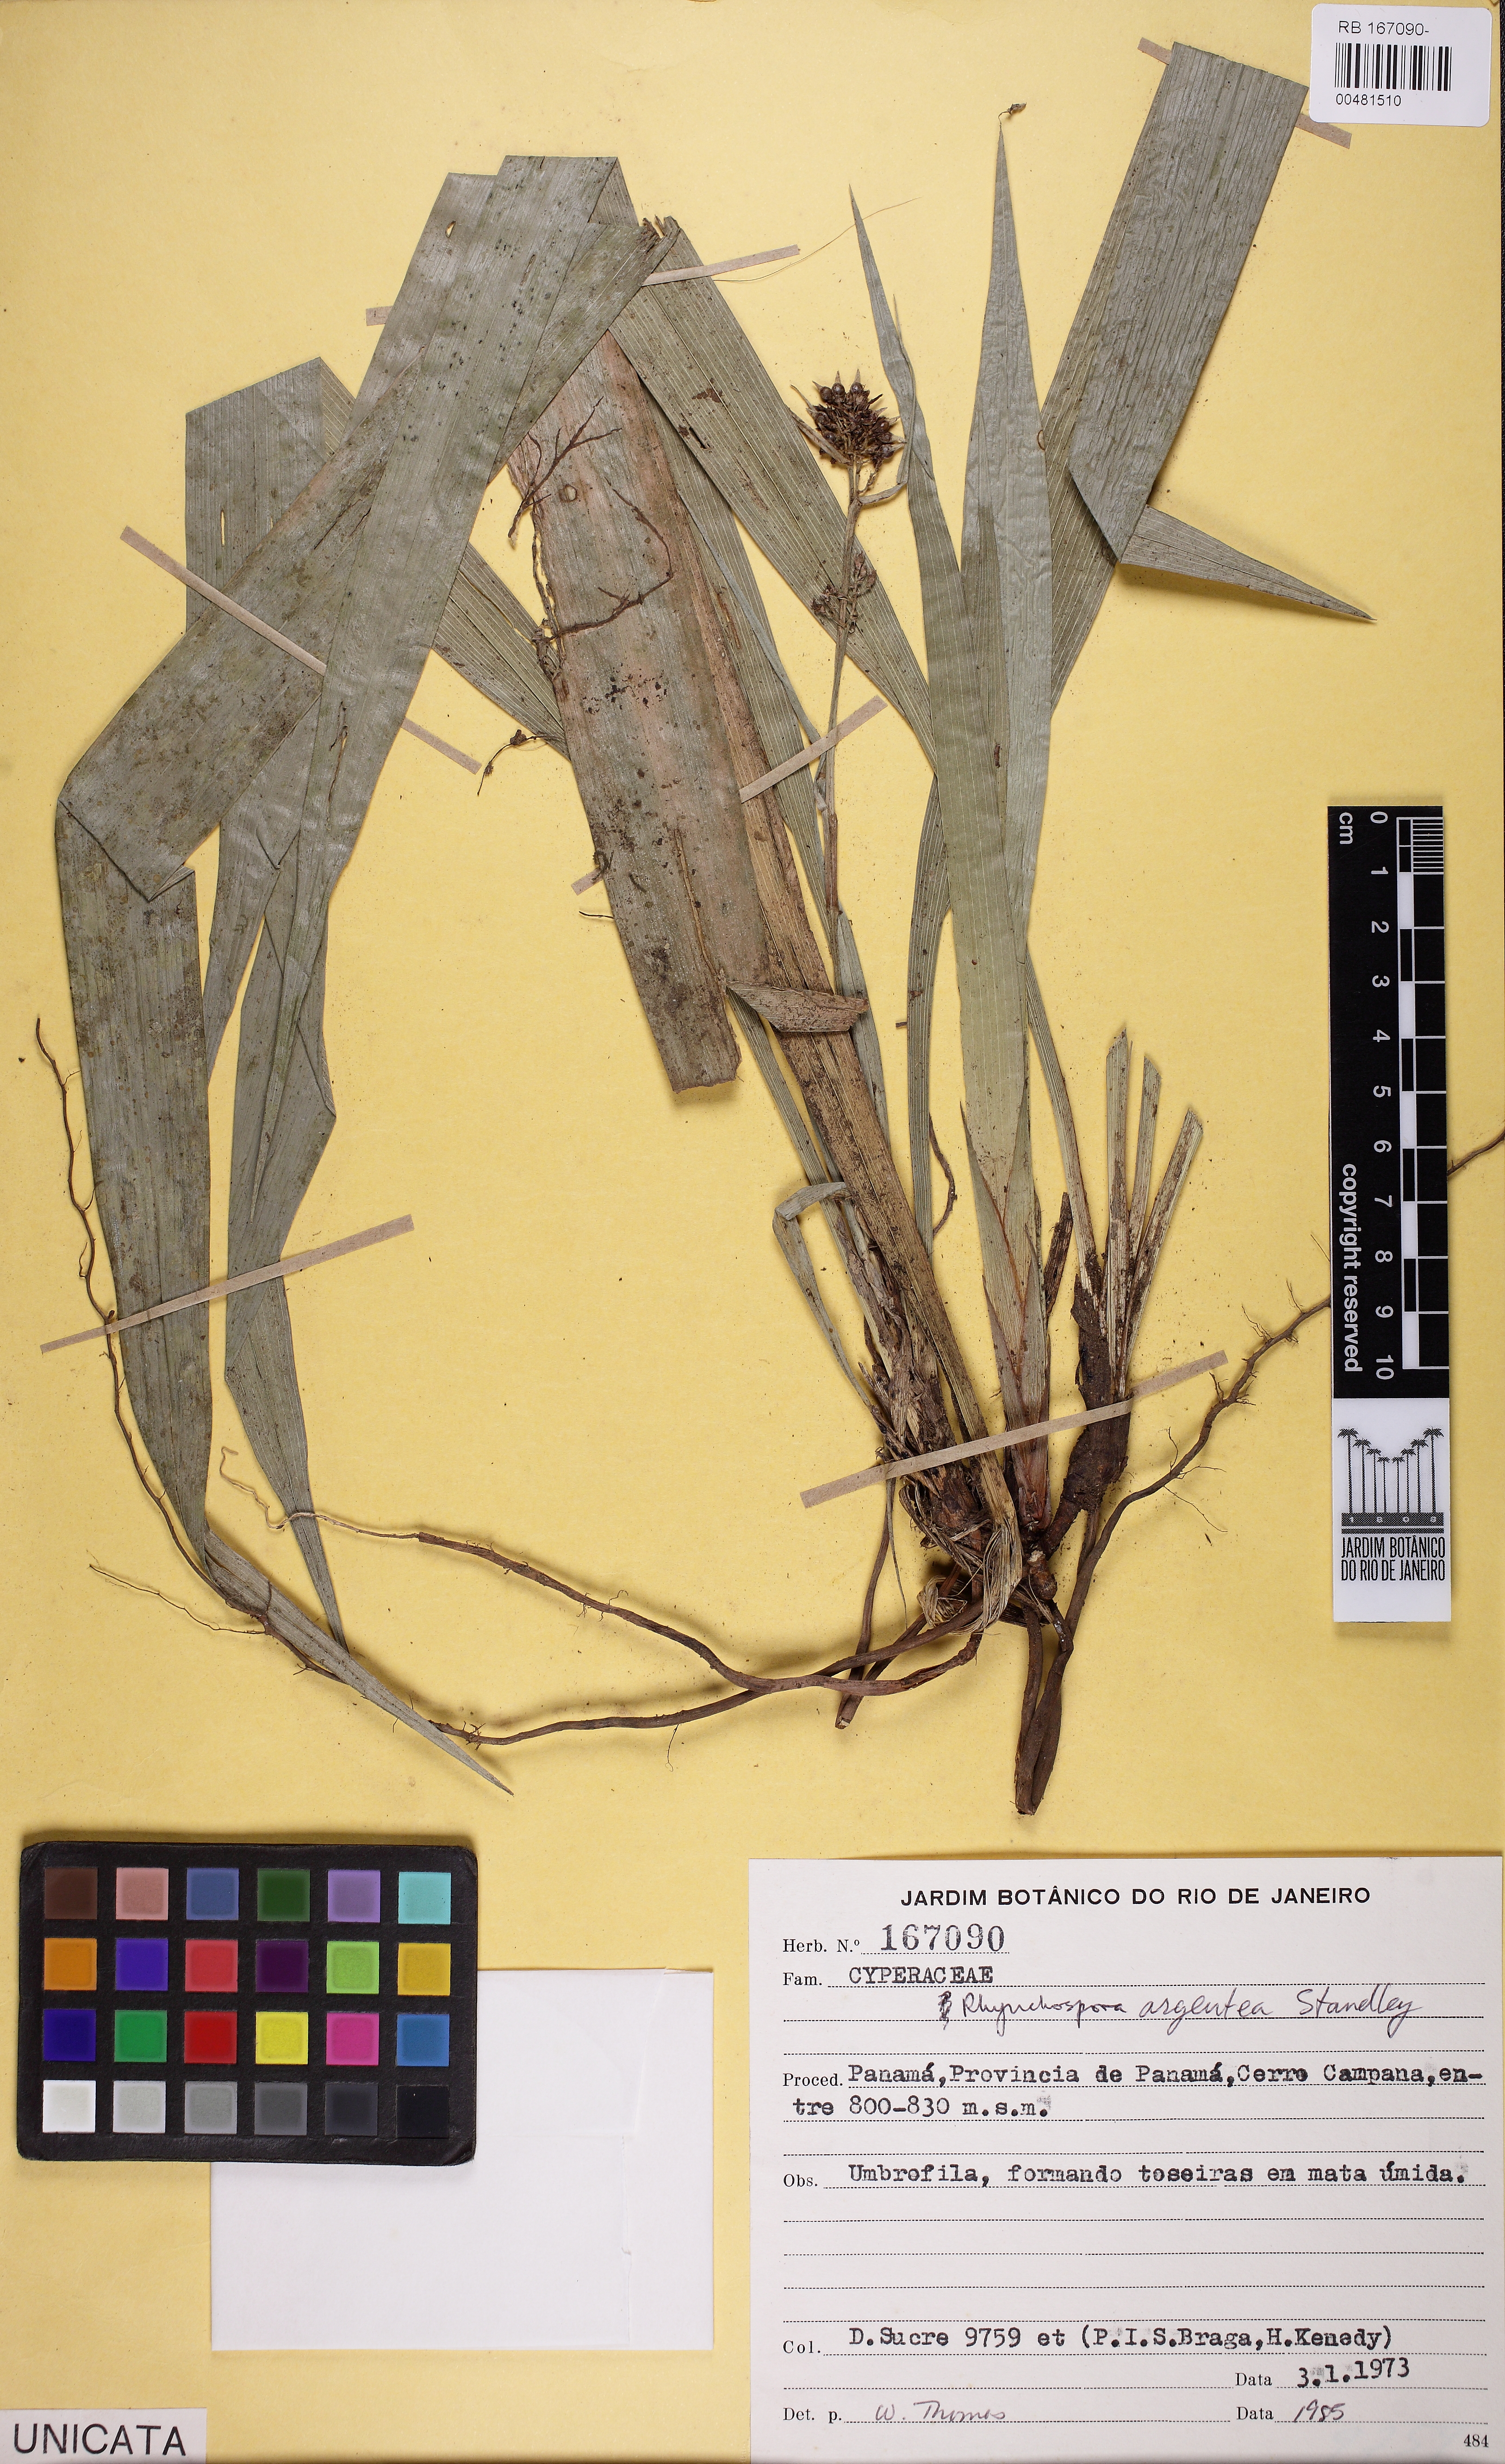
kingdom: Plantae
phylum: Tracheophyta
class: Liliopsida
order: Poales
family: Cyperaceae
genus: Rhynchospora
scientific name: Rhynchospora argentea
